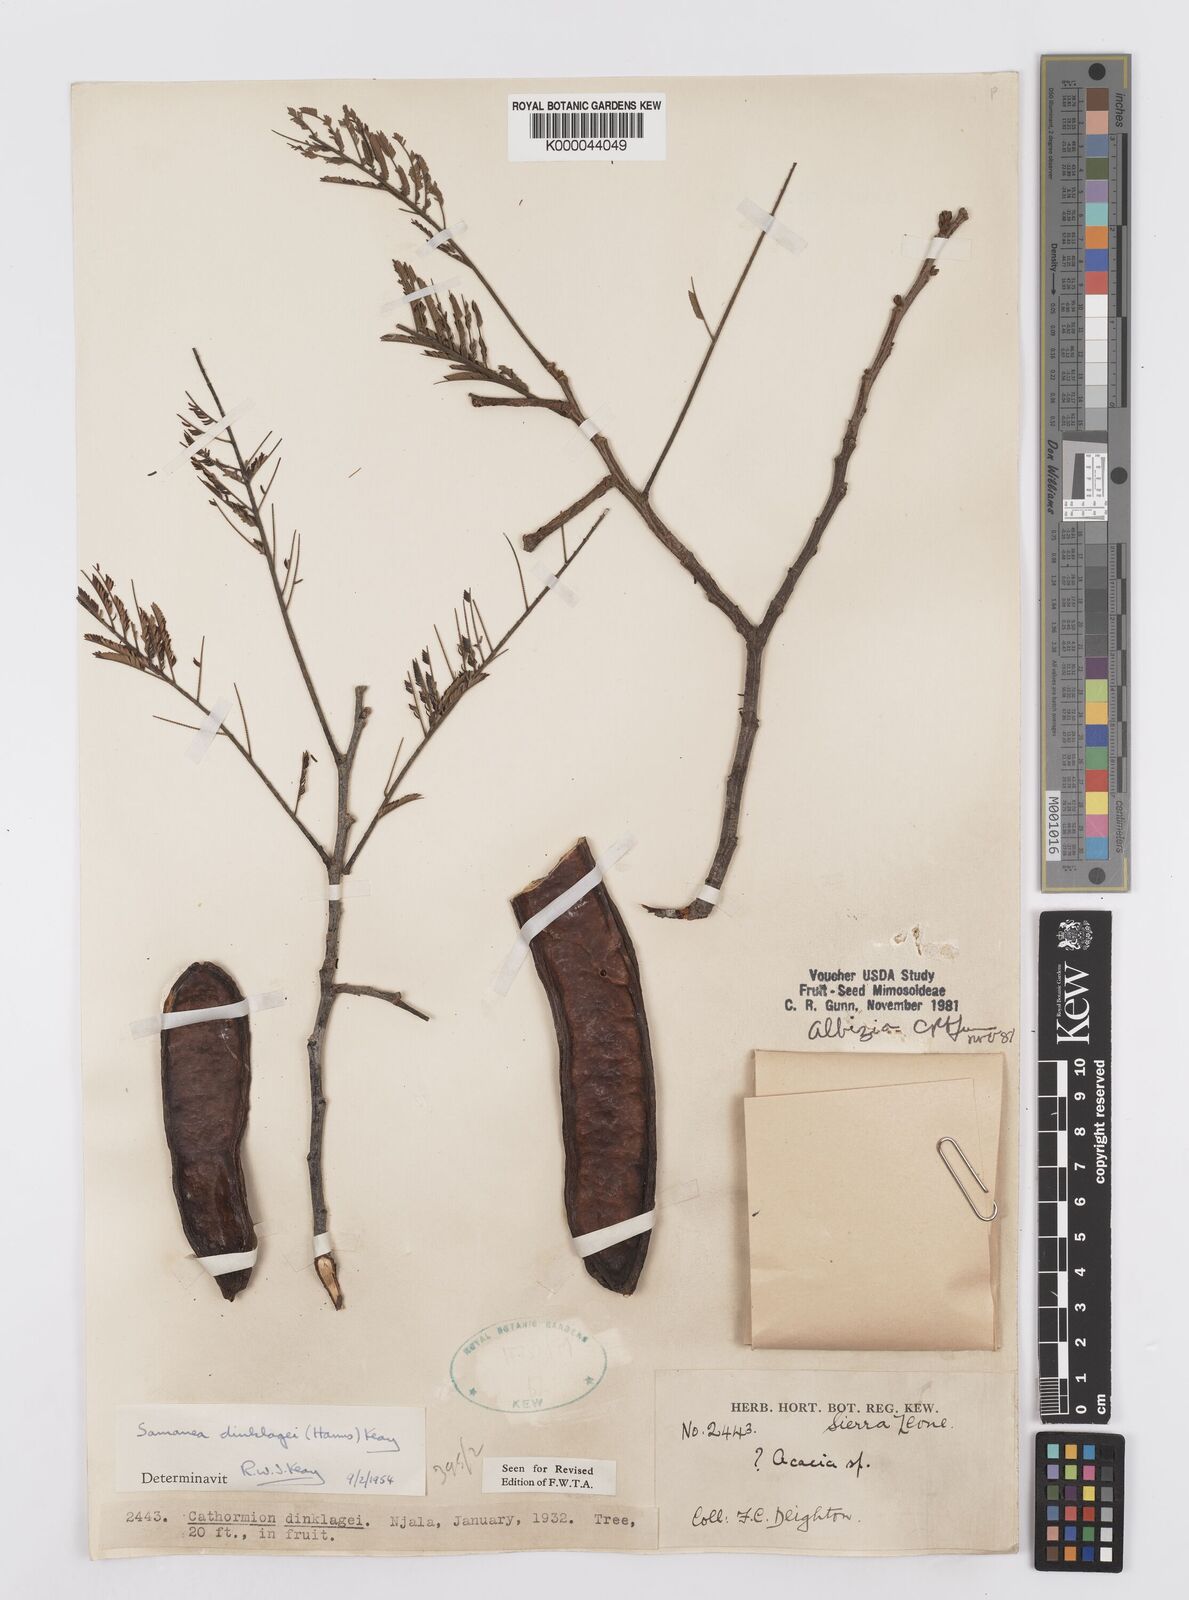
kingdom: Plantae
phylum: Tracheophyta
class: Magnoliopsida
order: Fabales
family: Fabaceae
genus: Albizia
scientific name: Albizia dinklagei
